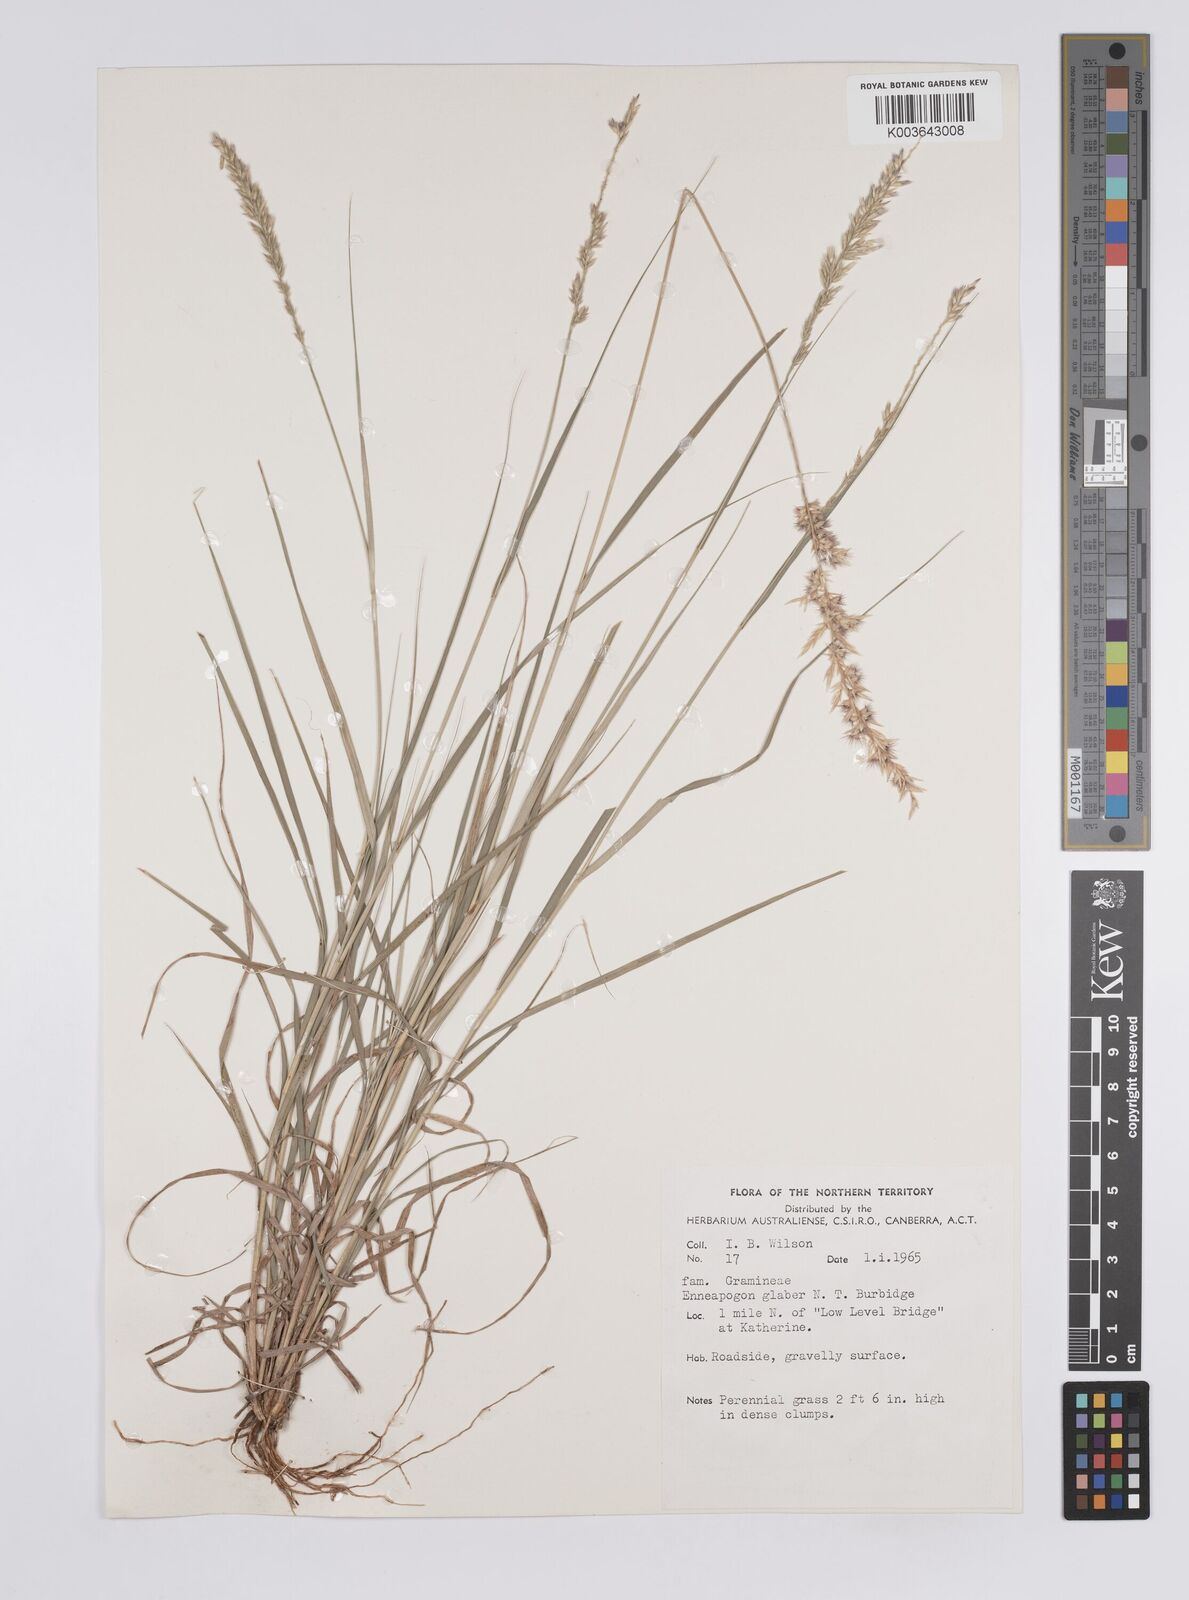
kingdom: Plantae
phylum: Tracheophyta
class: Liliopsida
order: Poales
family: Poaceae
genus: Enneapogon
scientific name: Enneapogon purpurascens
